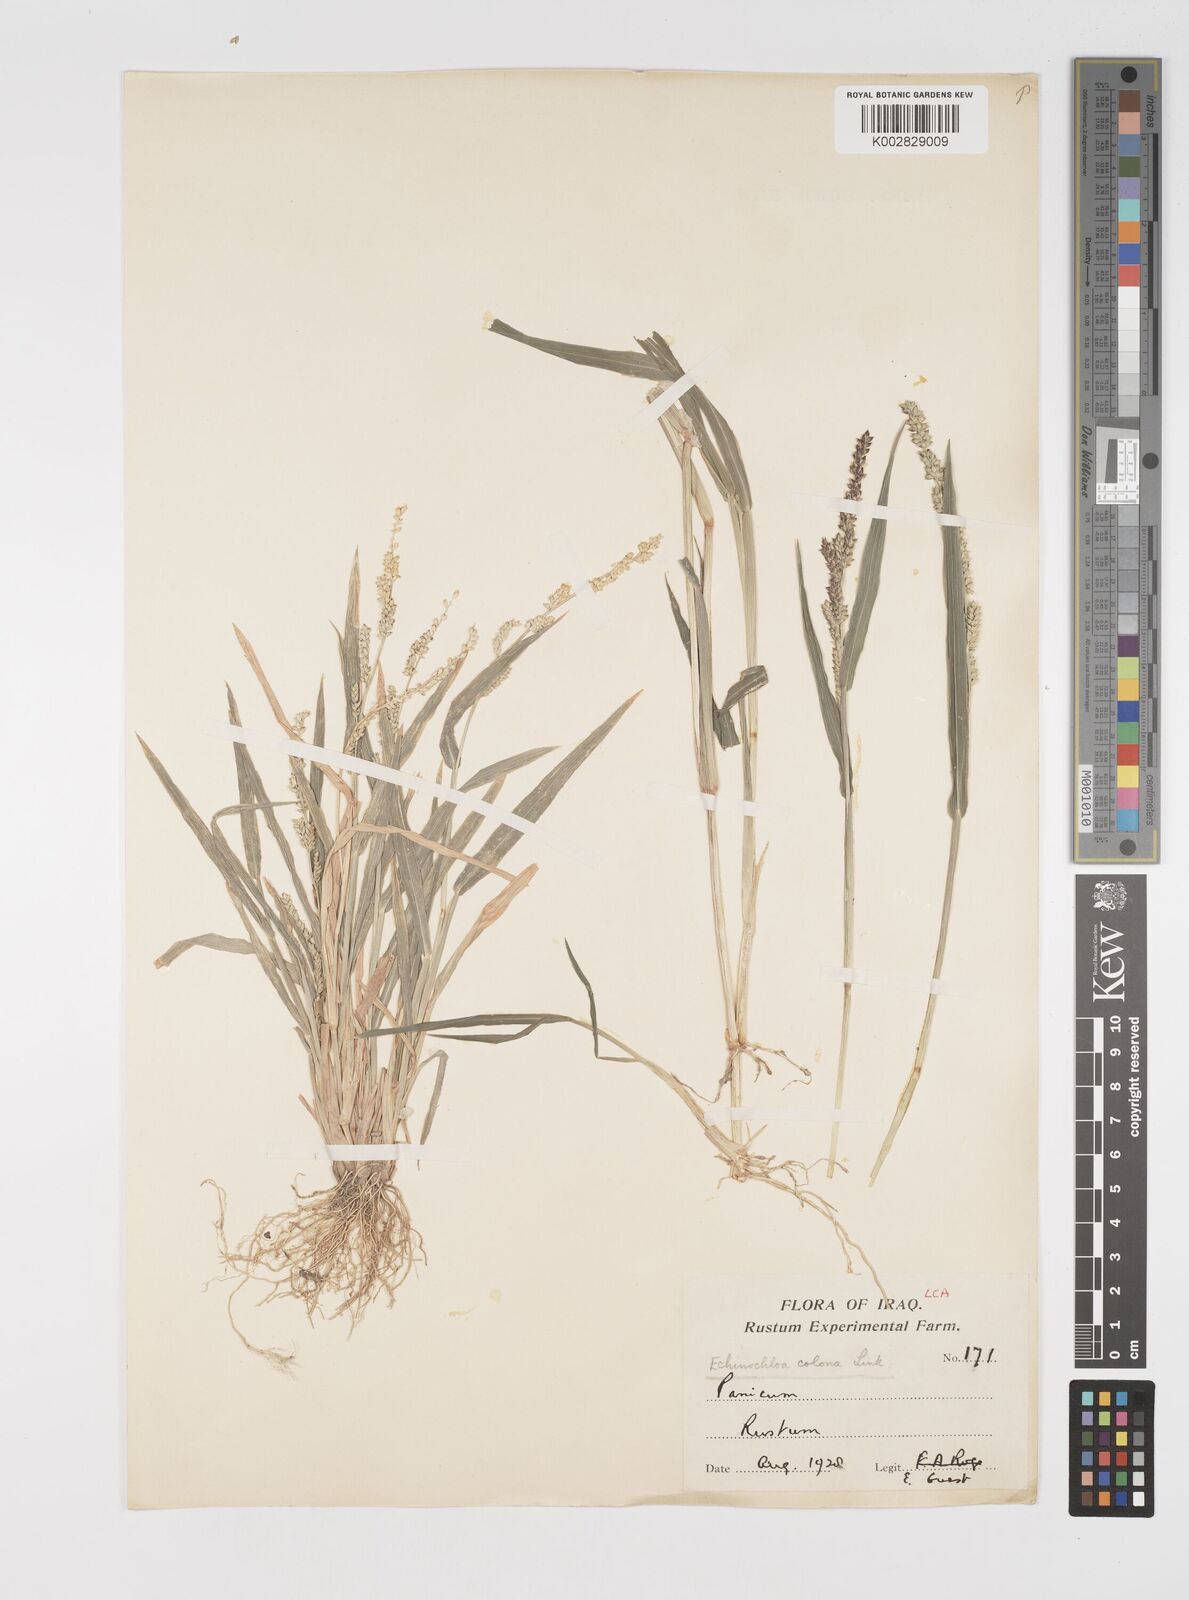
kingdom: Plantae
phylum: Tracheophyta
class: Liliopsida
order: Poales
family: Poaceae
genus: Echinochloa
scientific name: Echinochloa colonum
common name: Jungle rice
